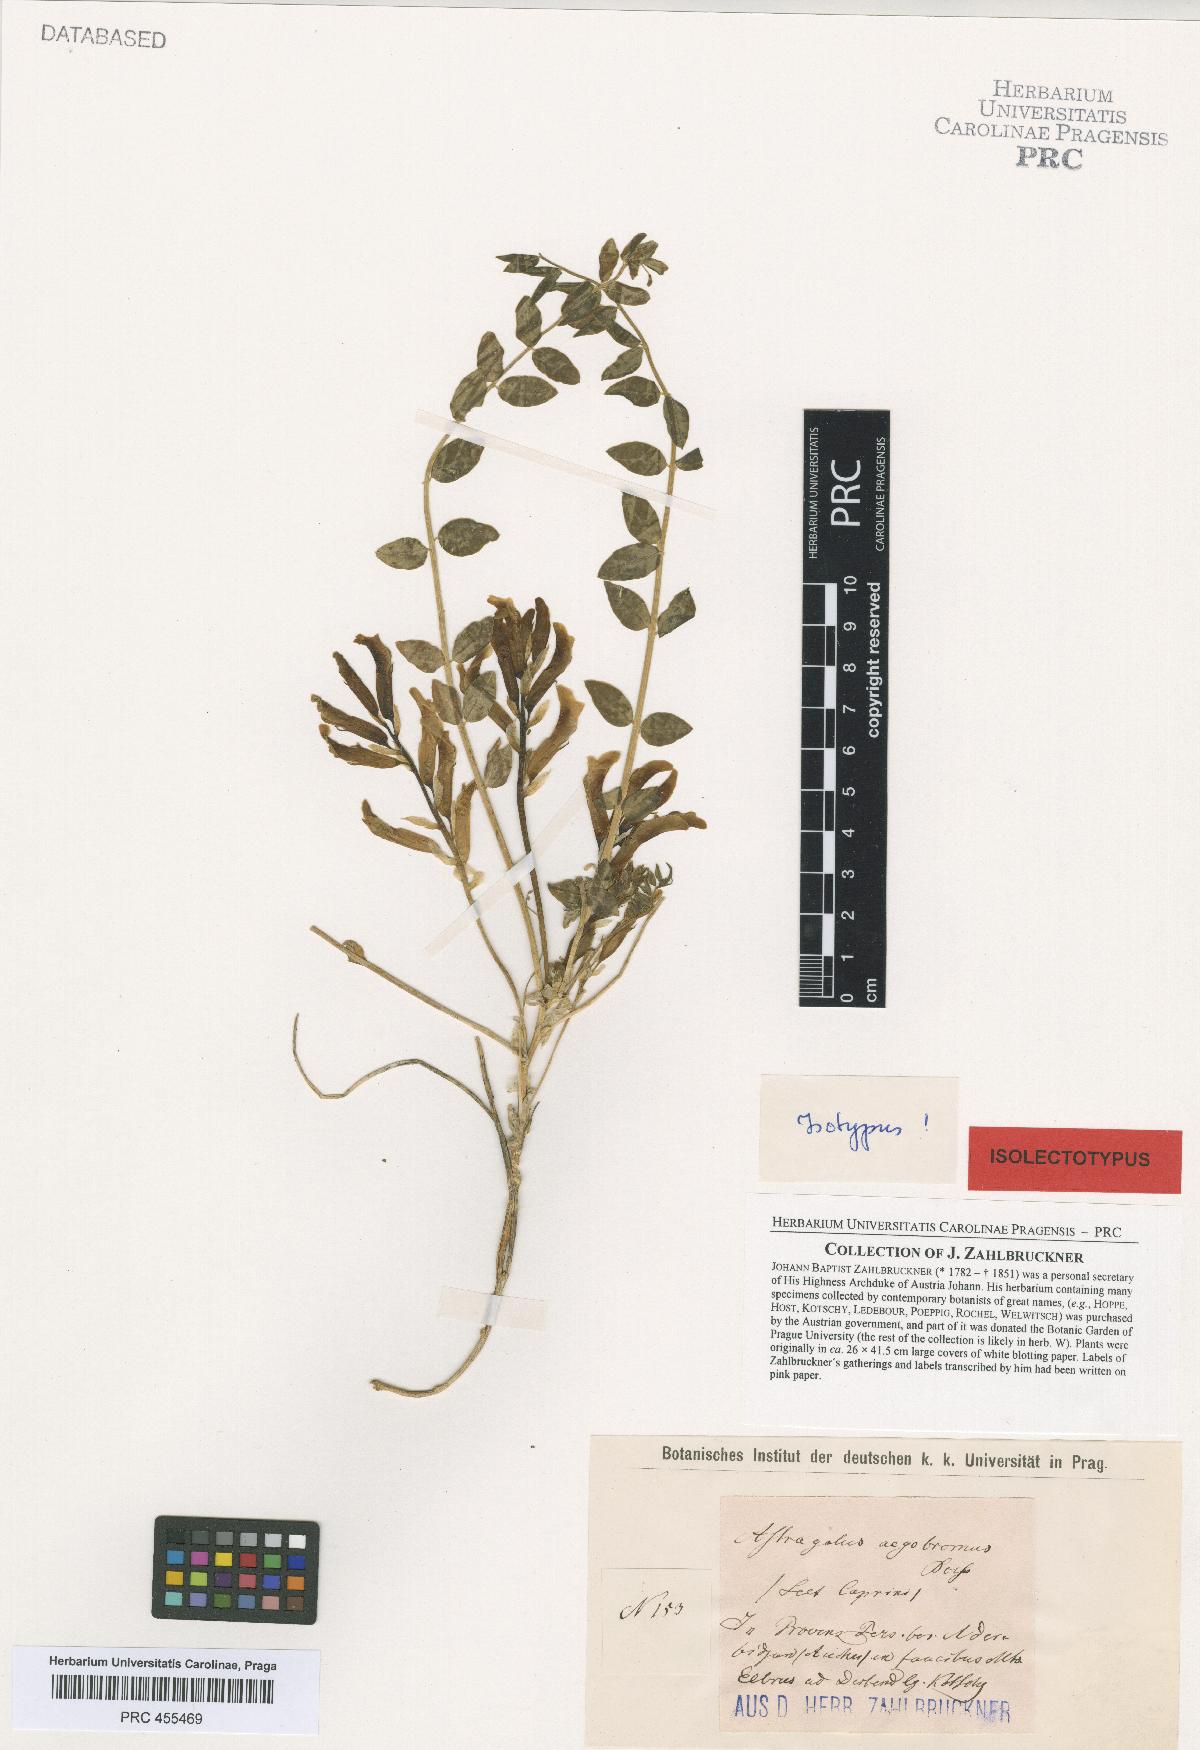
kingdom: Plantae
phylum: Tracheophyta
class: Magnoliopsida
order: Fabales
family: Fabaceae
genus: Astragalus
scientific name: Astragalus aegobromus
